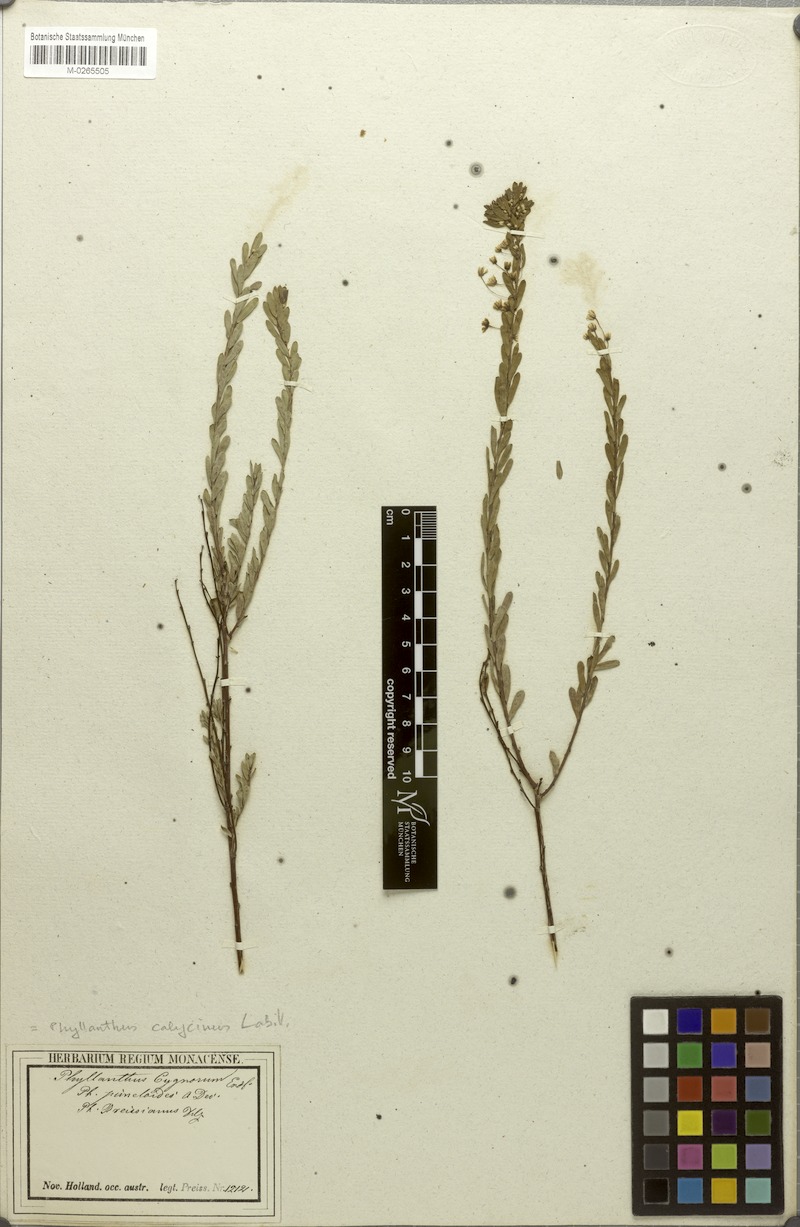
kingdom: Plantae
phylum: Tracheophyta
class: Magnoliopsida
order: Malpighiales
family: Phyllanthaceae
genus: Phyllanthus
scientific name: Phyllanthus calycinus
